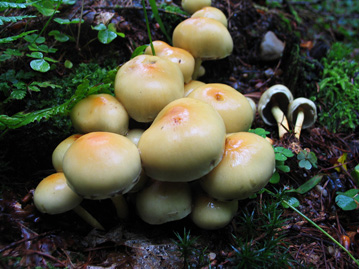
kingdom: Fungi
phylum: Basidiomycota
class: Agaricomycetes
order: Agaricales
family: Strophariaceae
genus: Hypholoma
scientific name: Hypholoma fasciculare
